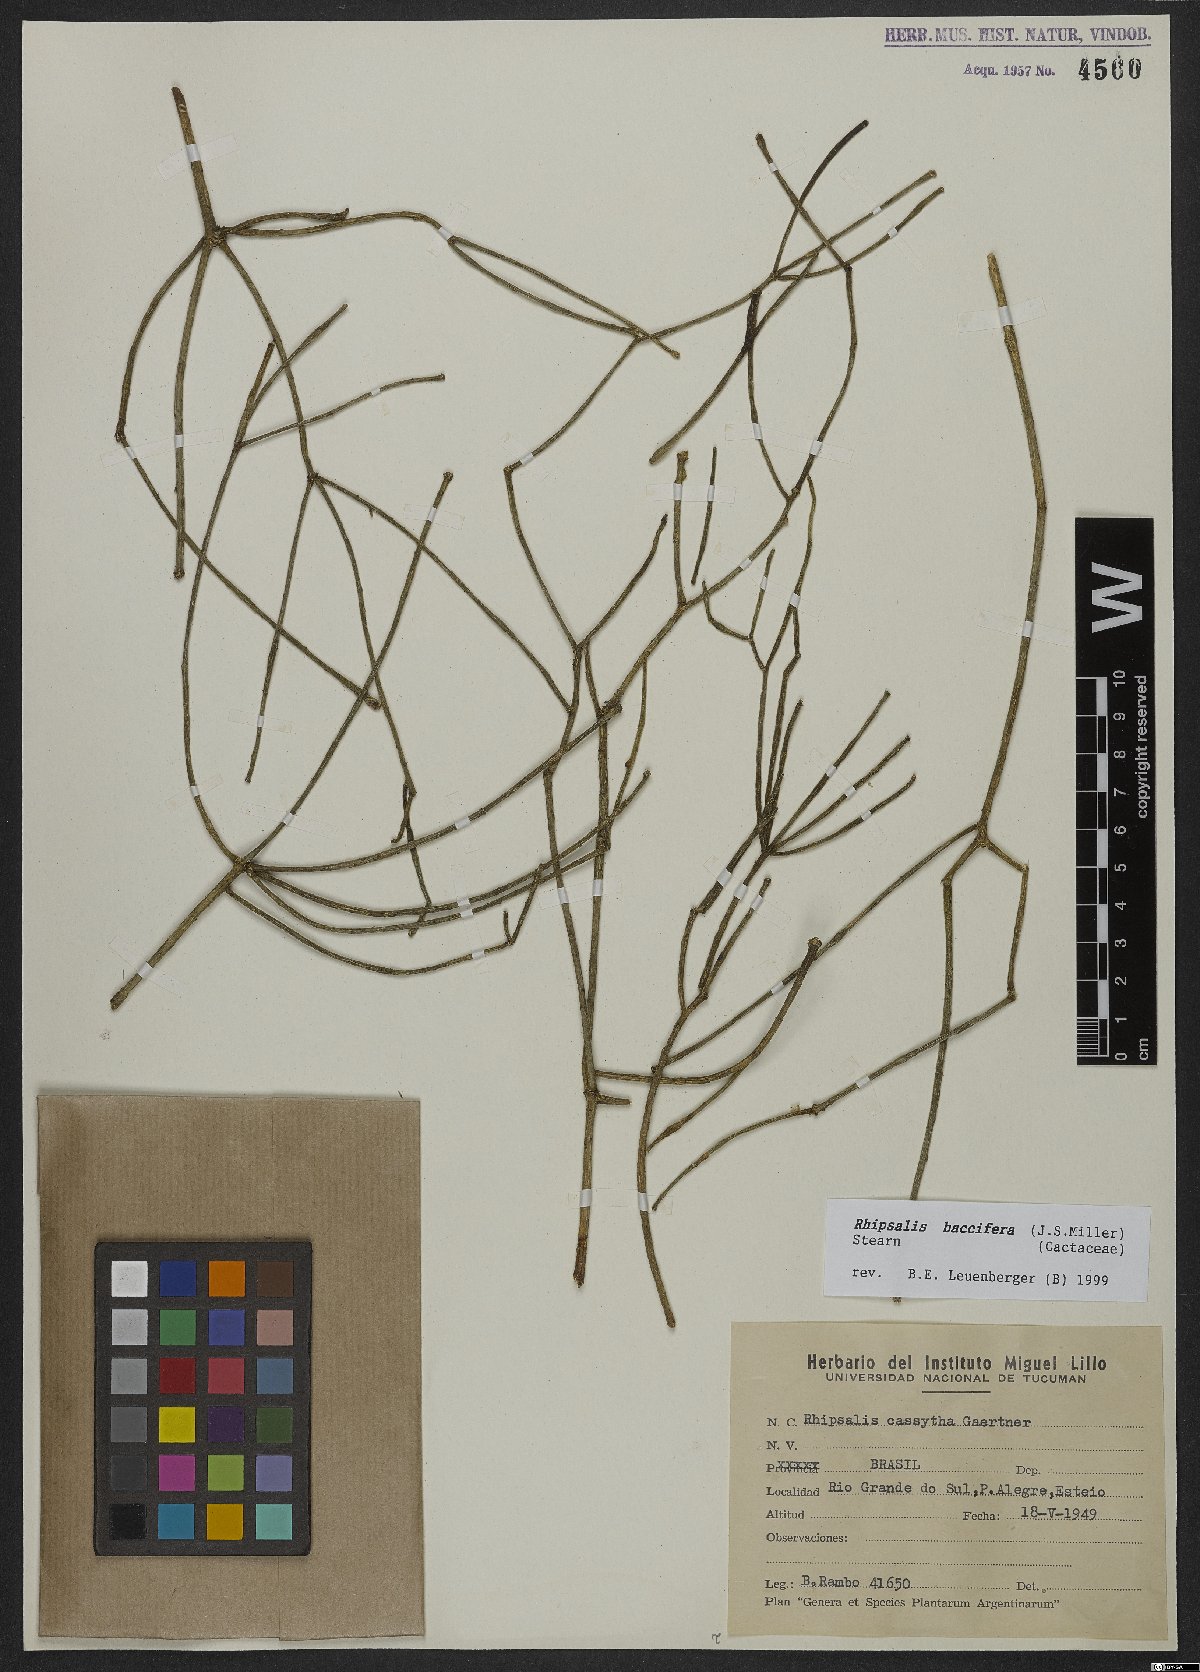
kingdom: Plantae
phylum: Tracheophyta
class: Magnoliopsida
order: Caryophyllales
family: Cactaceae
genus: Rhipsalis
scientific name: Rhipsalis baccifera
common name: Mistletoe cactus
